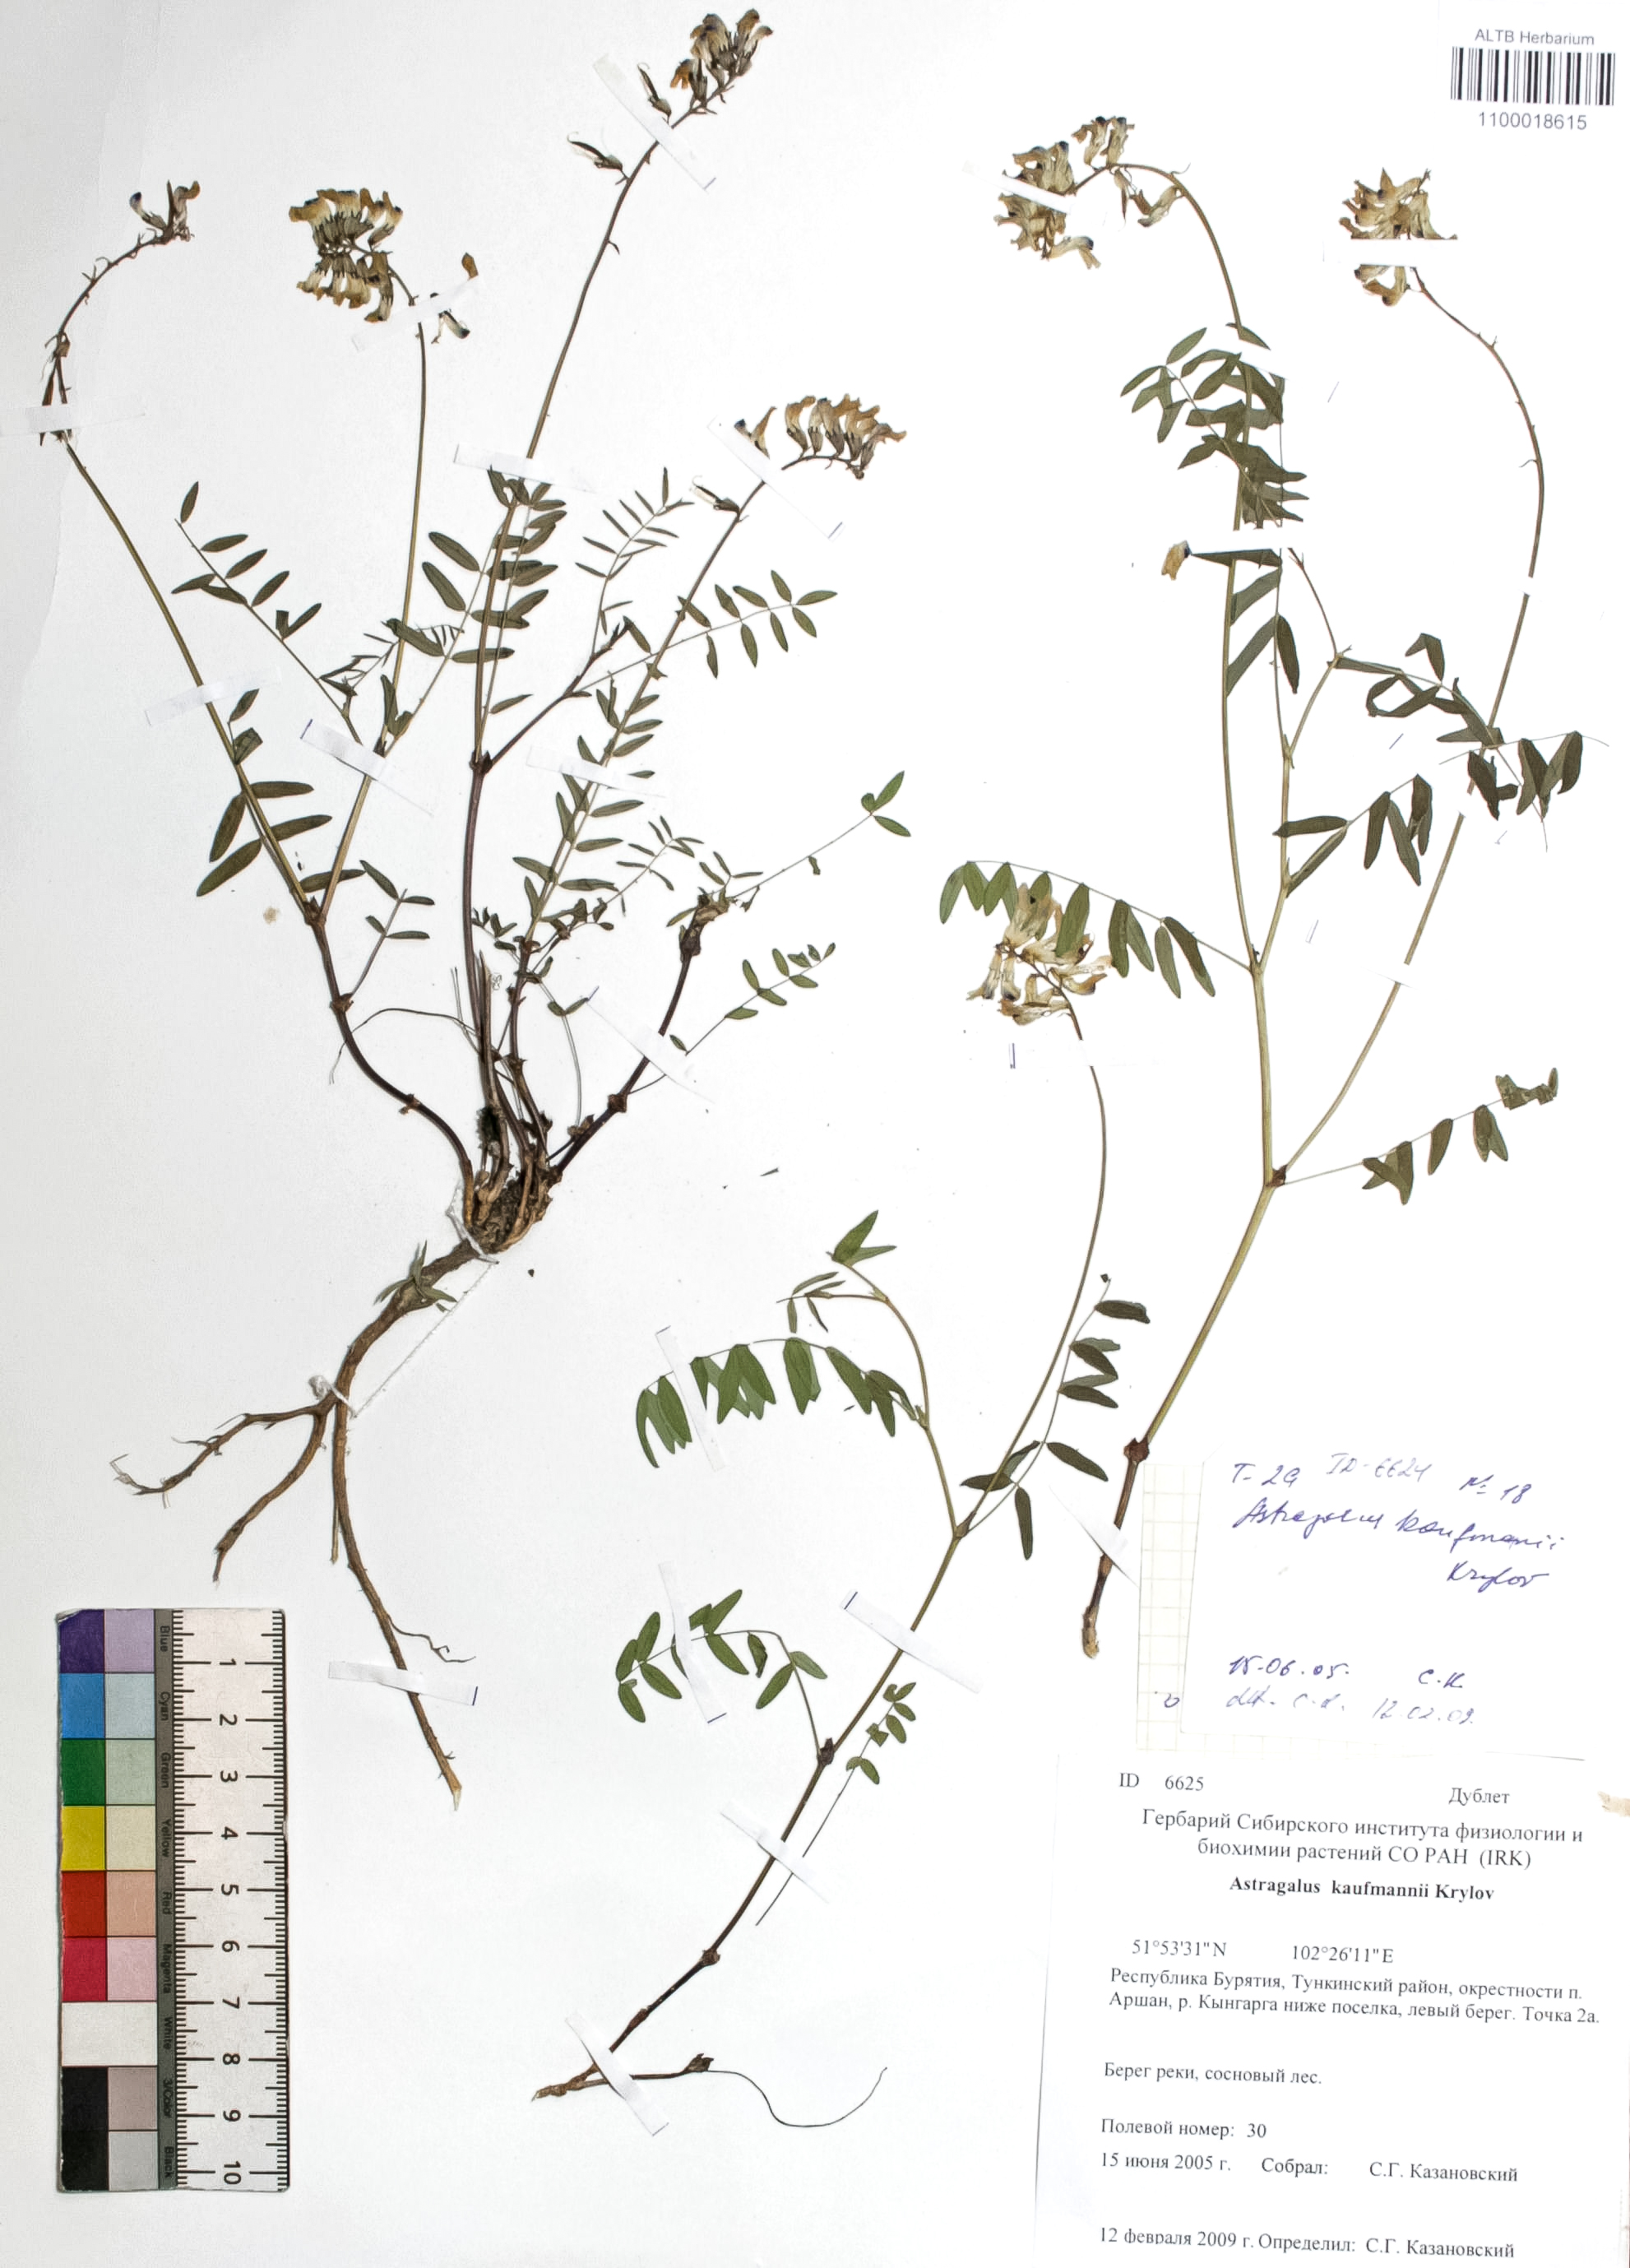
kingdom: Plantae
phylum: Tracheophyta
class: Magnoliopsida
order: Fabales
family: Fabaceae
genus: Astragalus
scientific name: Astragalus kaufmannii
